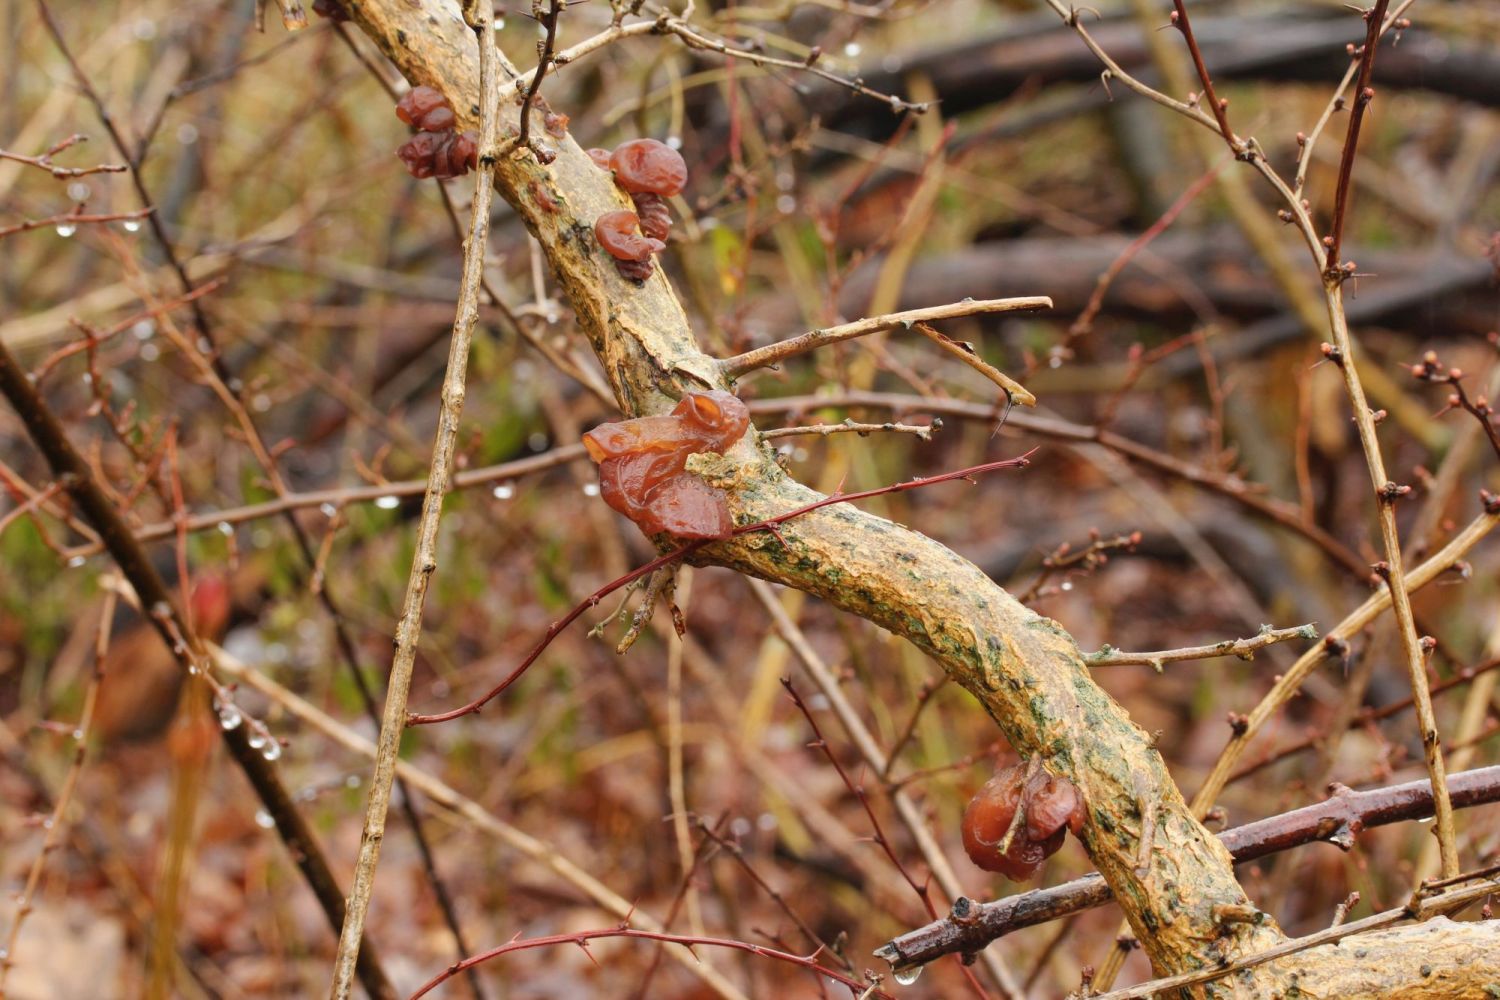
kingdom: Fungi
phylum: Basidiomycota
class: Agaricomycetes
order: Auriculariales
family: Auriculariaceae
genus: Auricularia
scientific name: Auricularia auricula-judae
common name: almindelig judasøre
